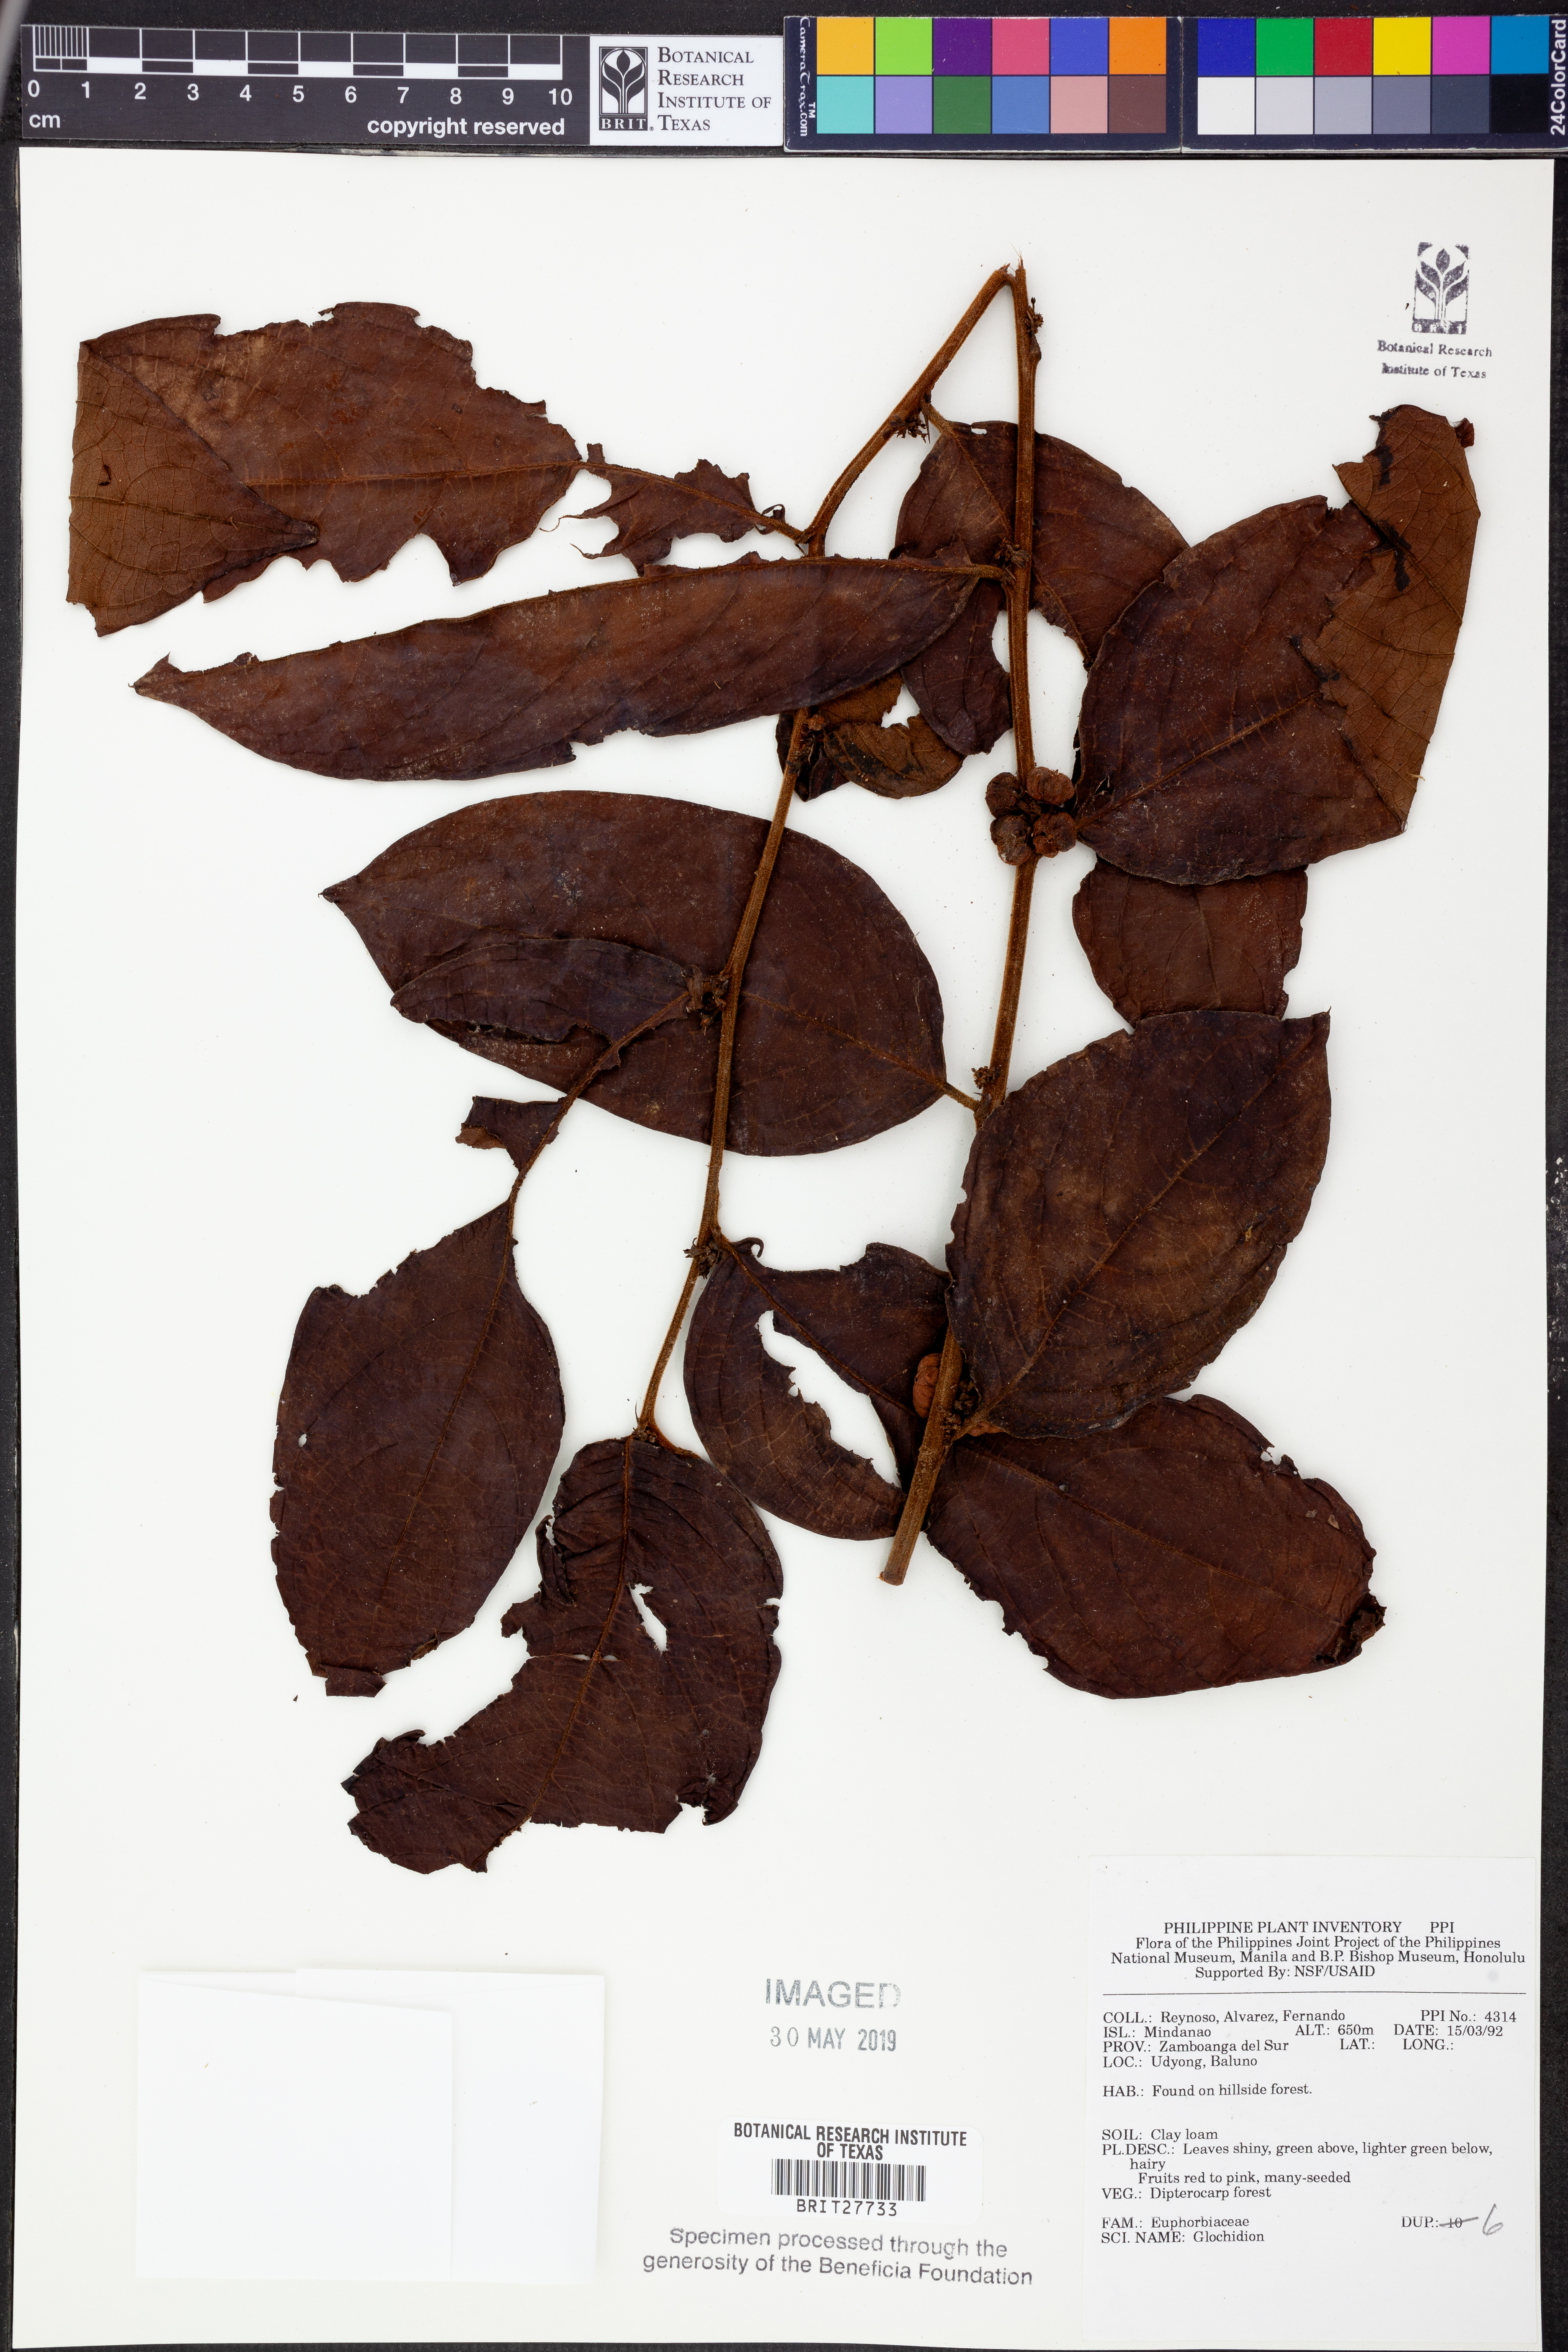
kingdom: Plantae
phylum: Tracheophyta
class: Magnoliopsida
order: Malpighiales
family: Phyllanthaceae
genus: Glochidion
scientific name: Glochidion
